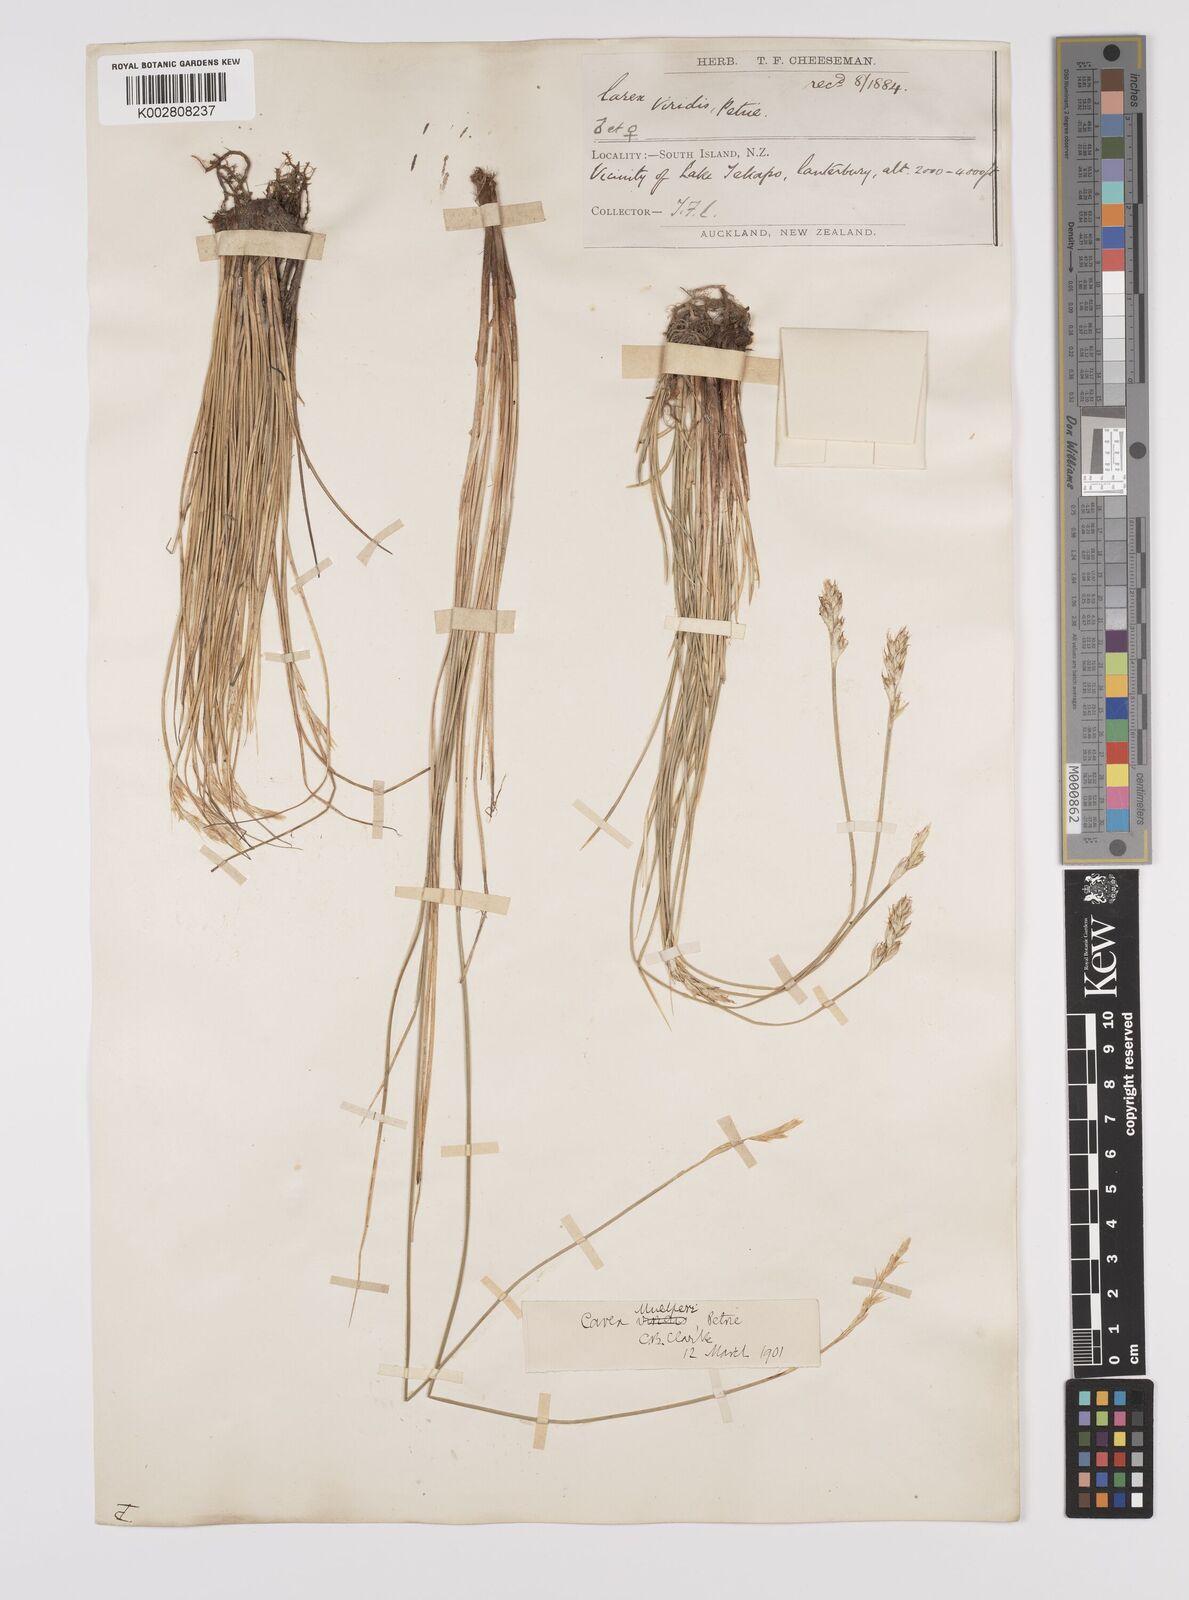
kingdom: Plantae
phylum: Tracheophyta
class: Liliopsida
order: Poales
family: Cyperaceae
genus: Carex
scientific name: Carex muelleri
